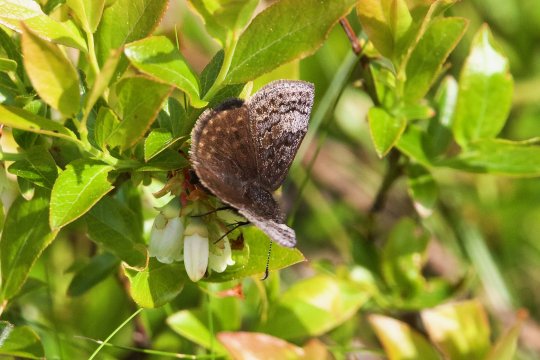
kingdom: Animalia
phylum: Arthropoda
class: Insecta
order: Lepidoptera
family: Hesperiidae
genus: Erynnis
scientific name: Erynnis icelus
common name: Dreamy Duskywing
